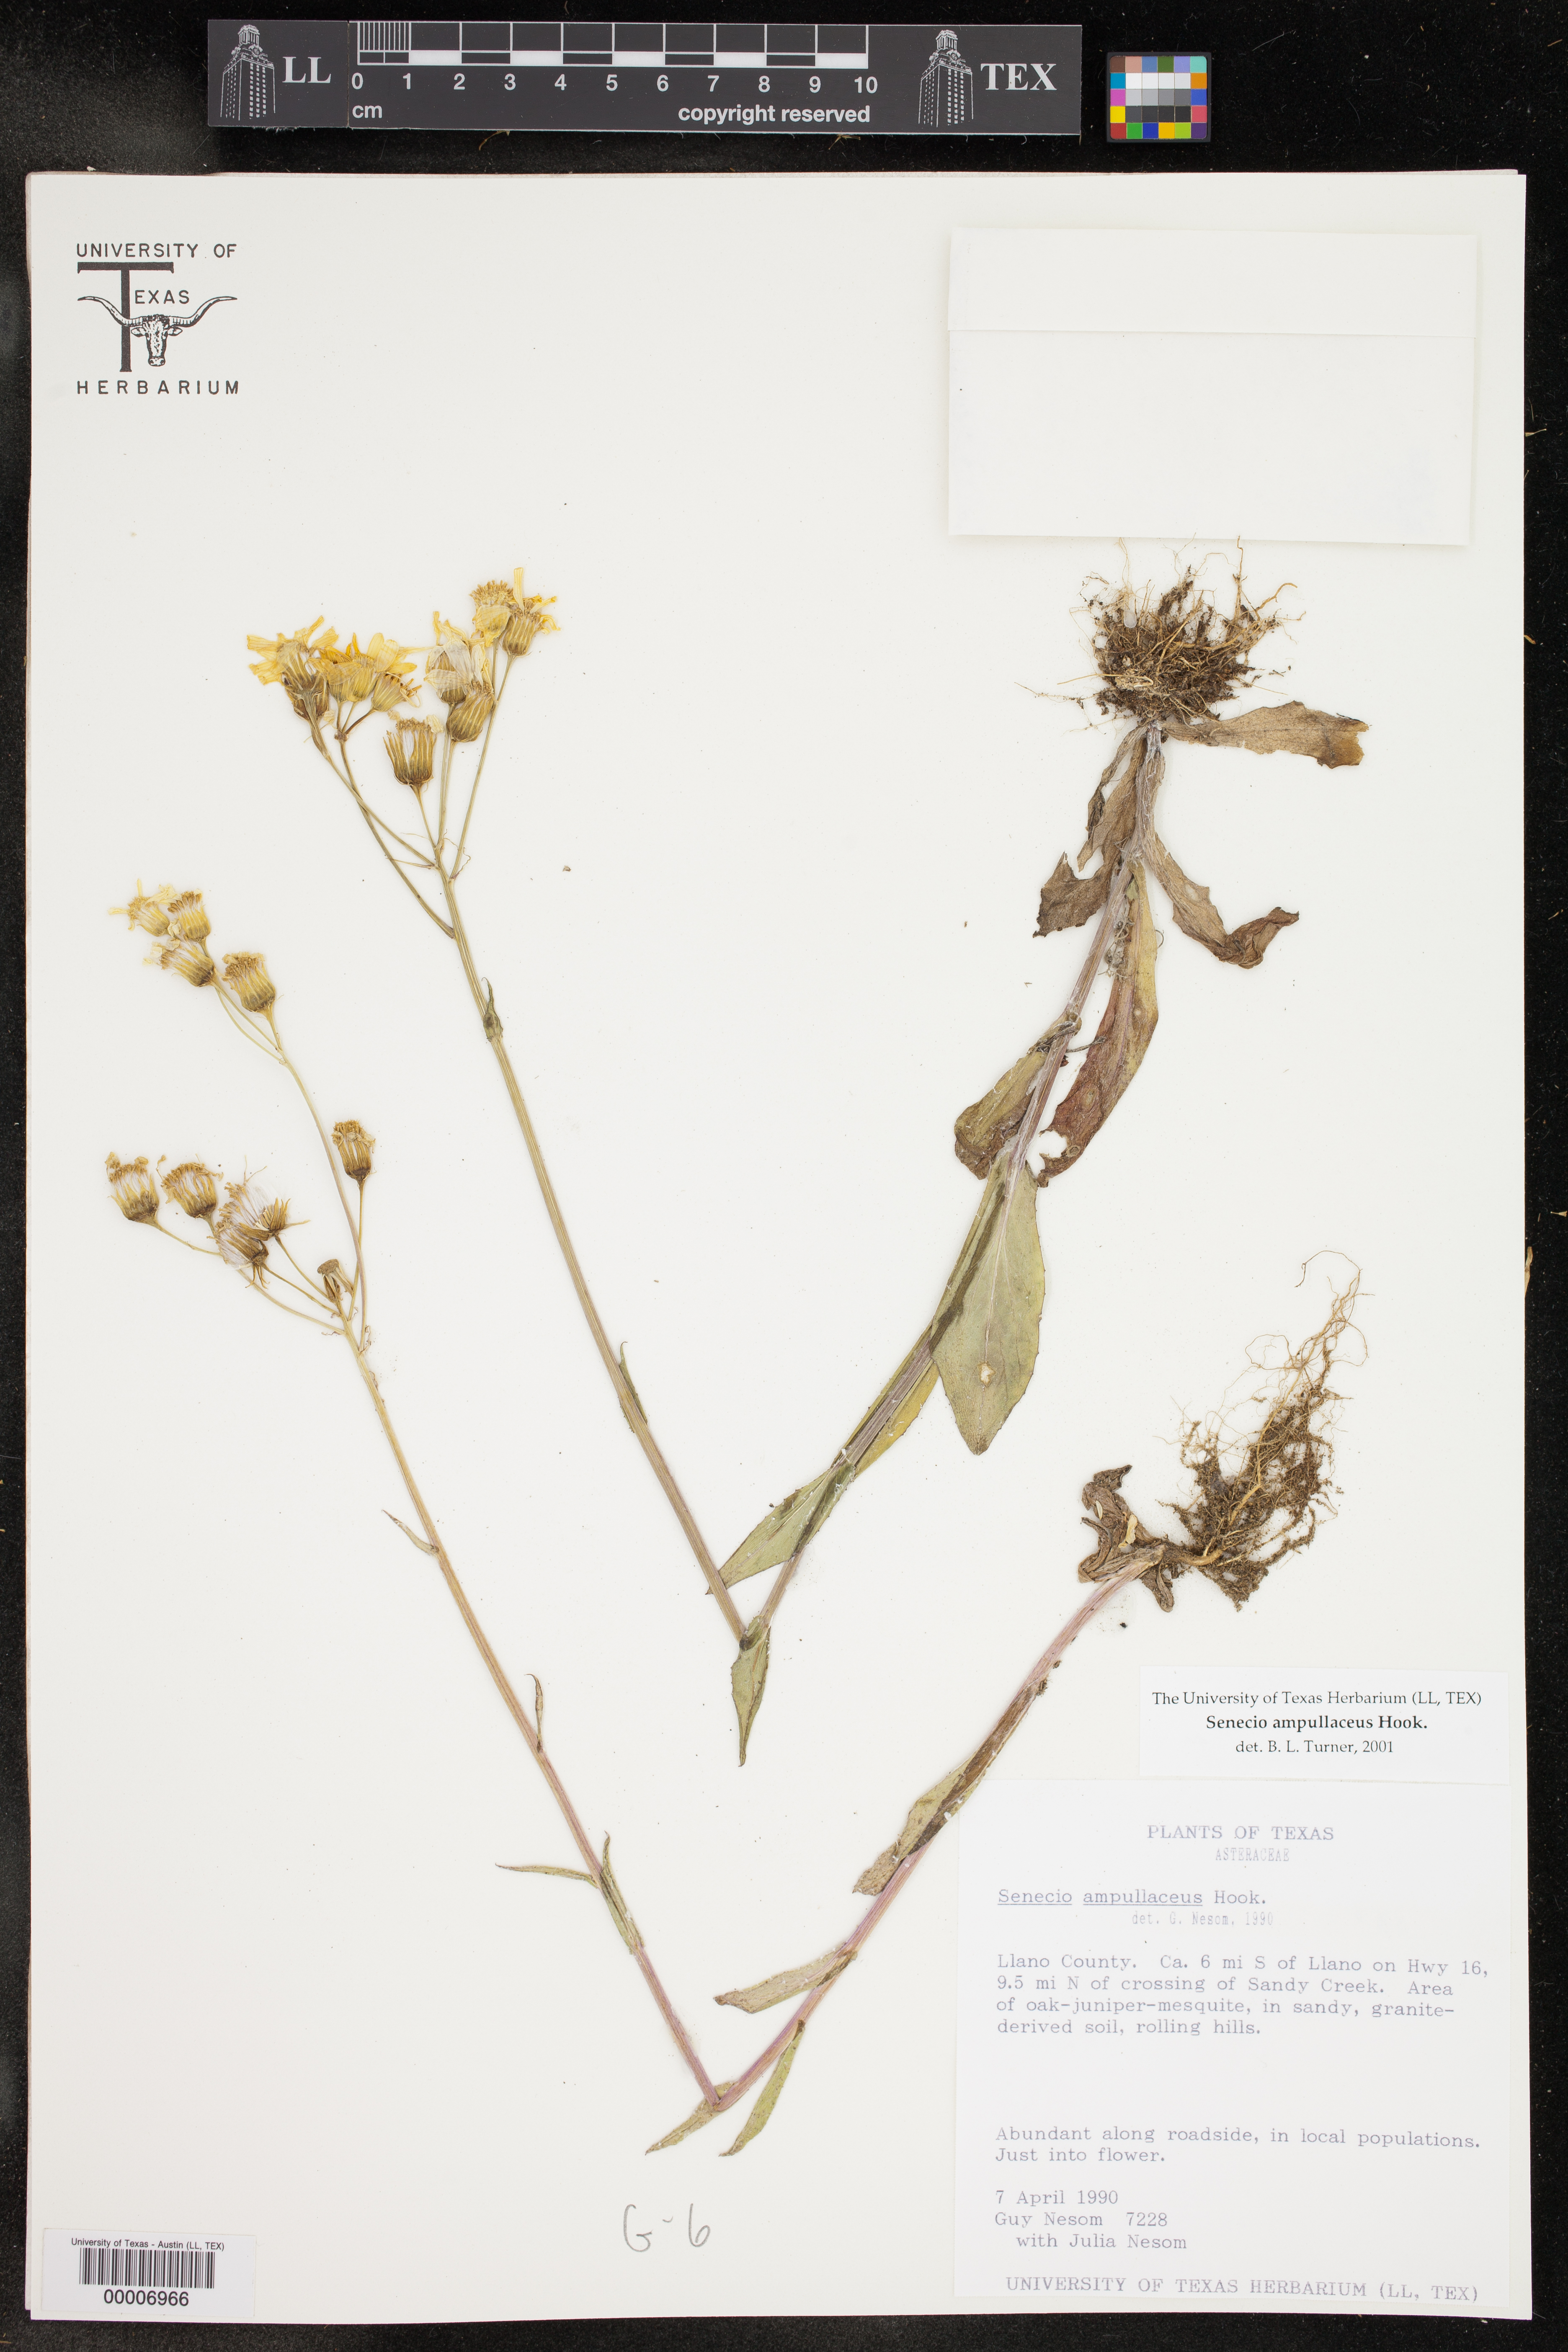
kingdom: Plantae
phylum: Tracheophyta
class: Magnoliopsida
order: Asterales
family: Asteraceae
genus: Senecio
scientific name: Senecio ampullaceus
